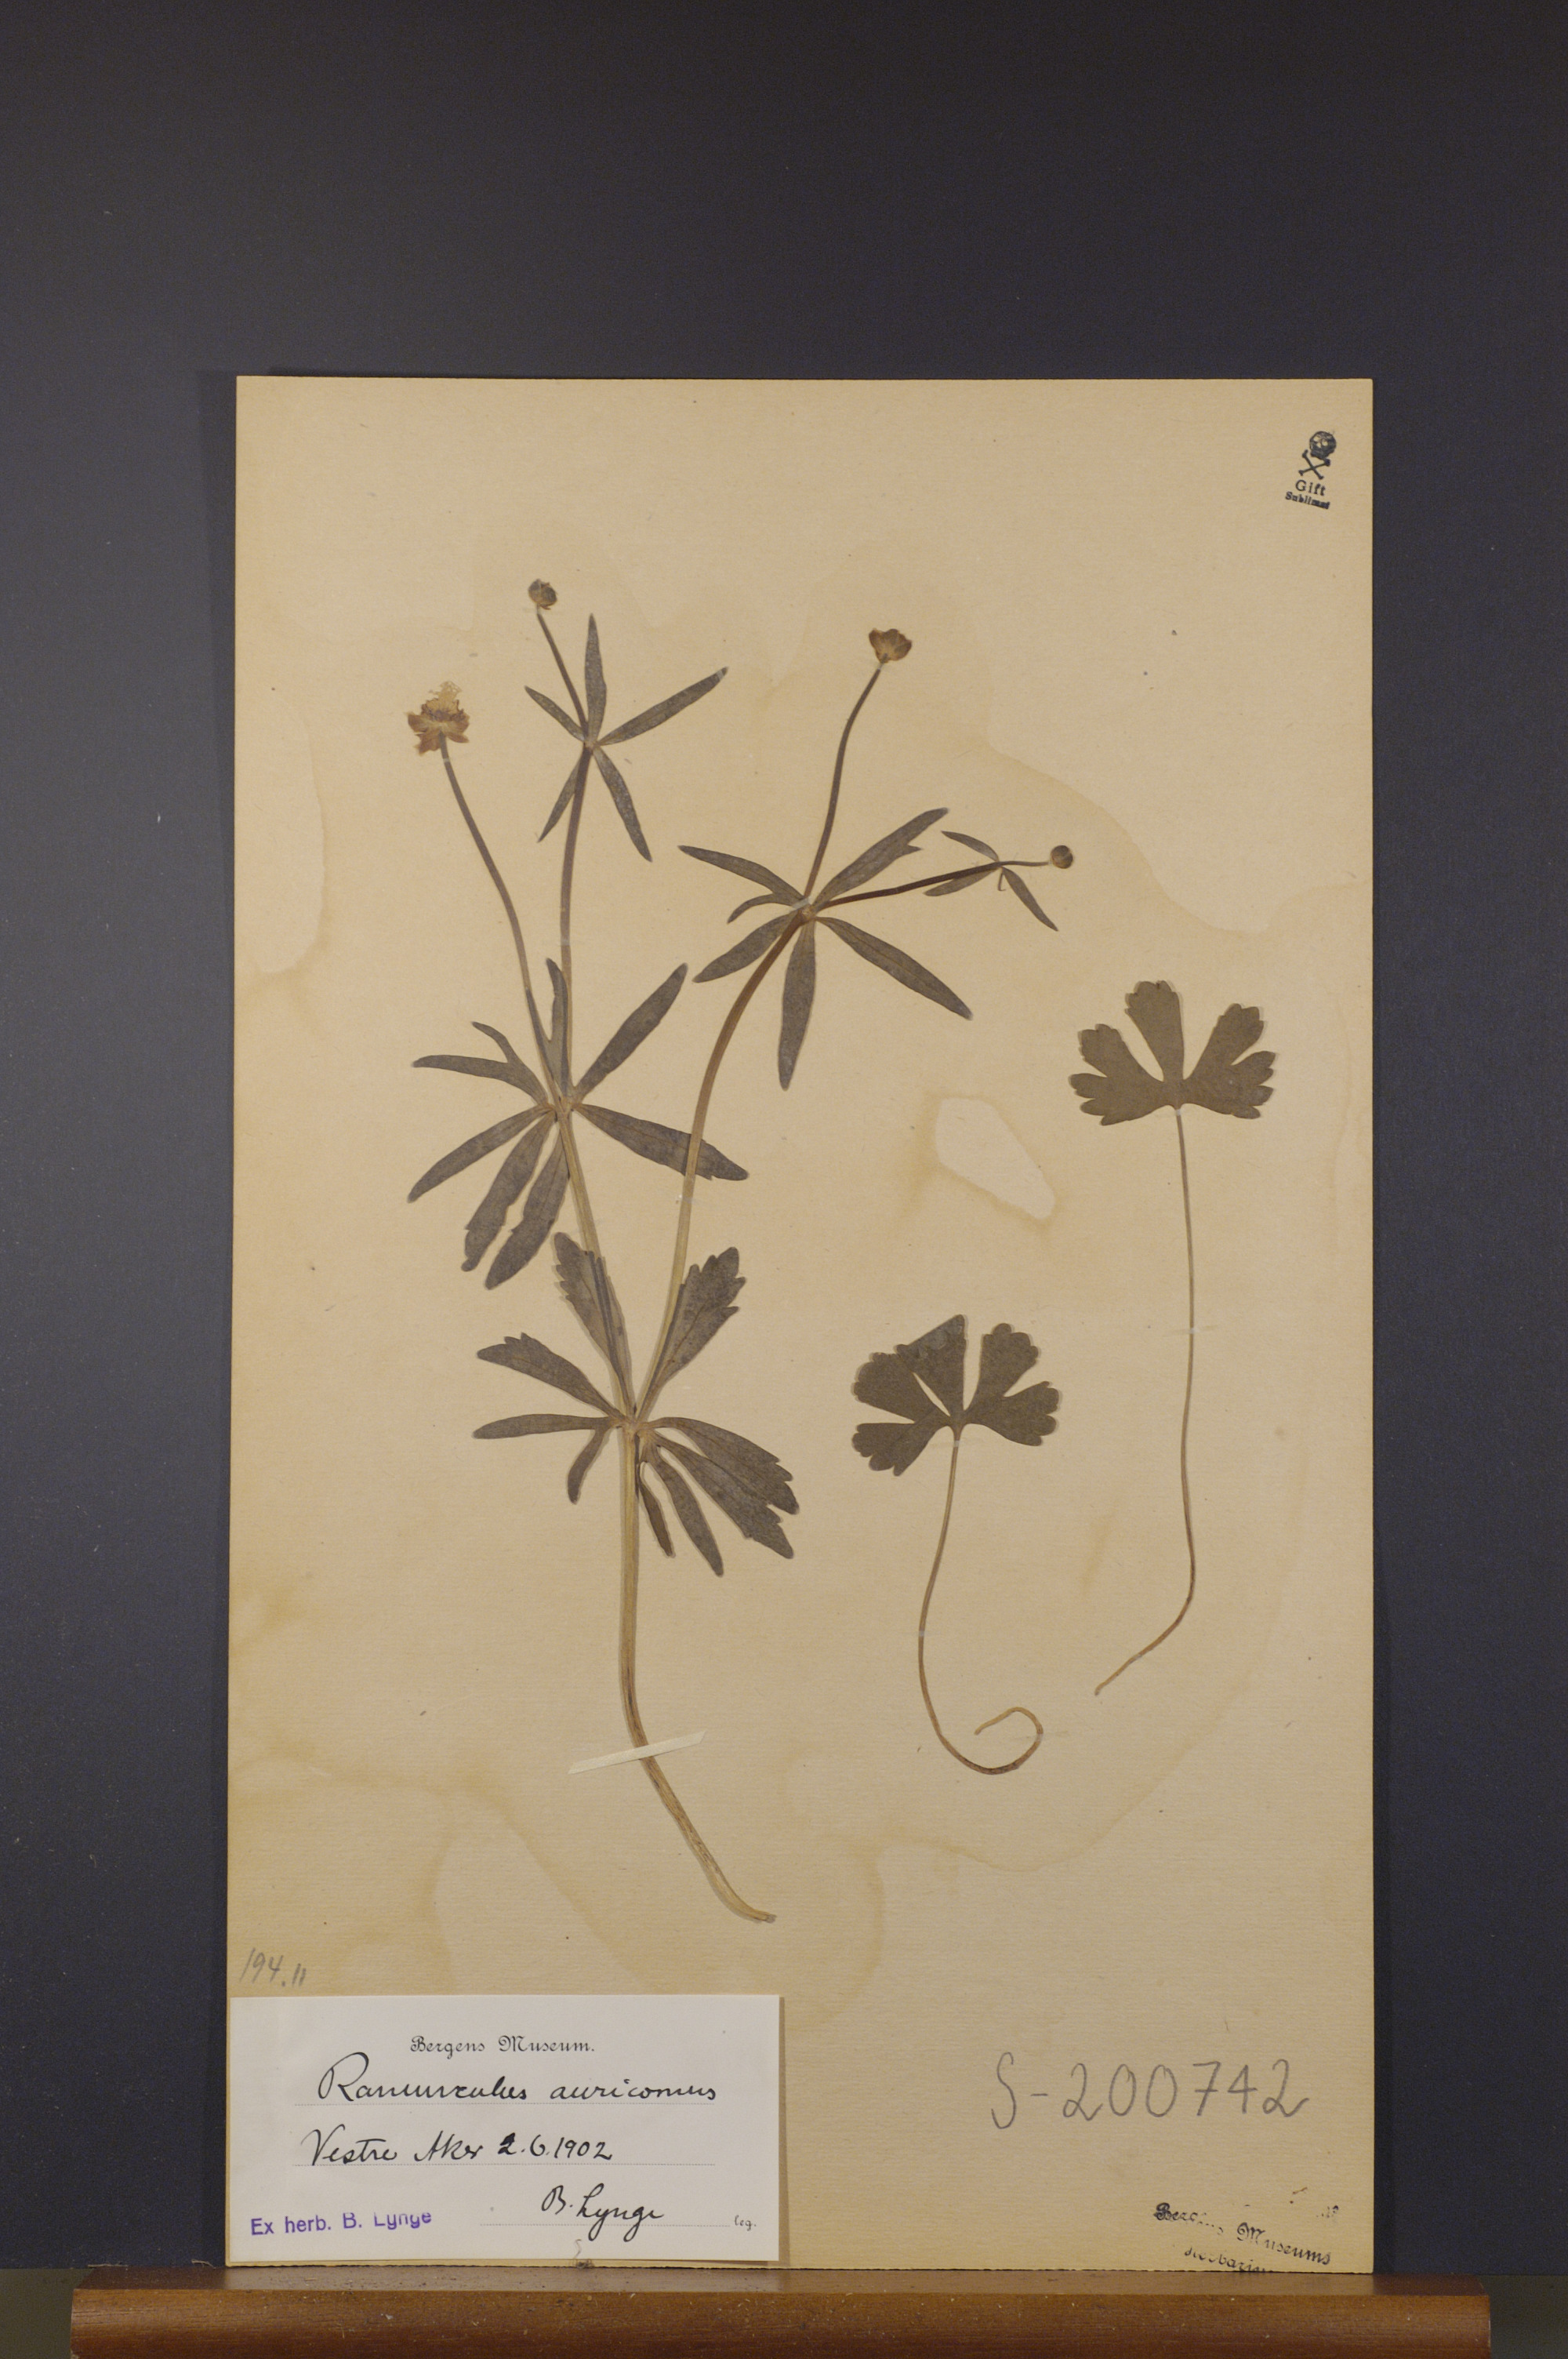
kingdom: Plantae
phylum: Tracheophyta
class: Magnoliopsida
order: Ranunculales
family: Ranunculaceae
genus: Ranunculus
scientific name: Ranunculus auricomus
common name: Goldilocks buttercup
